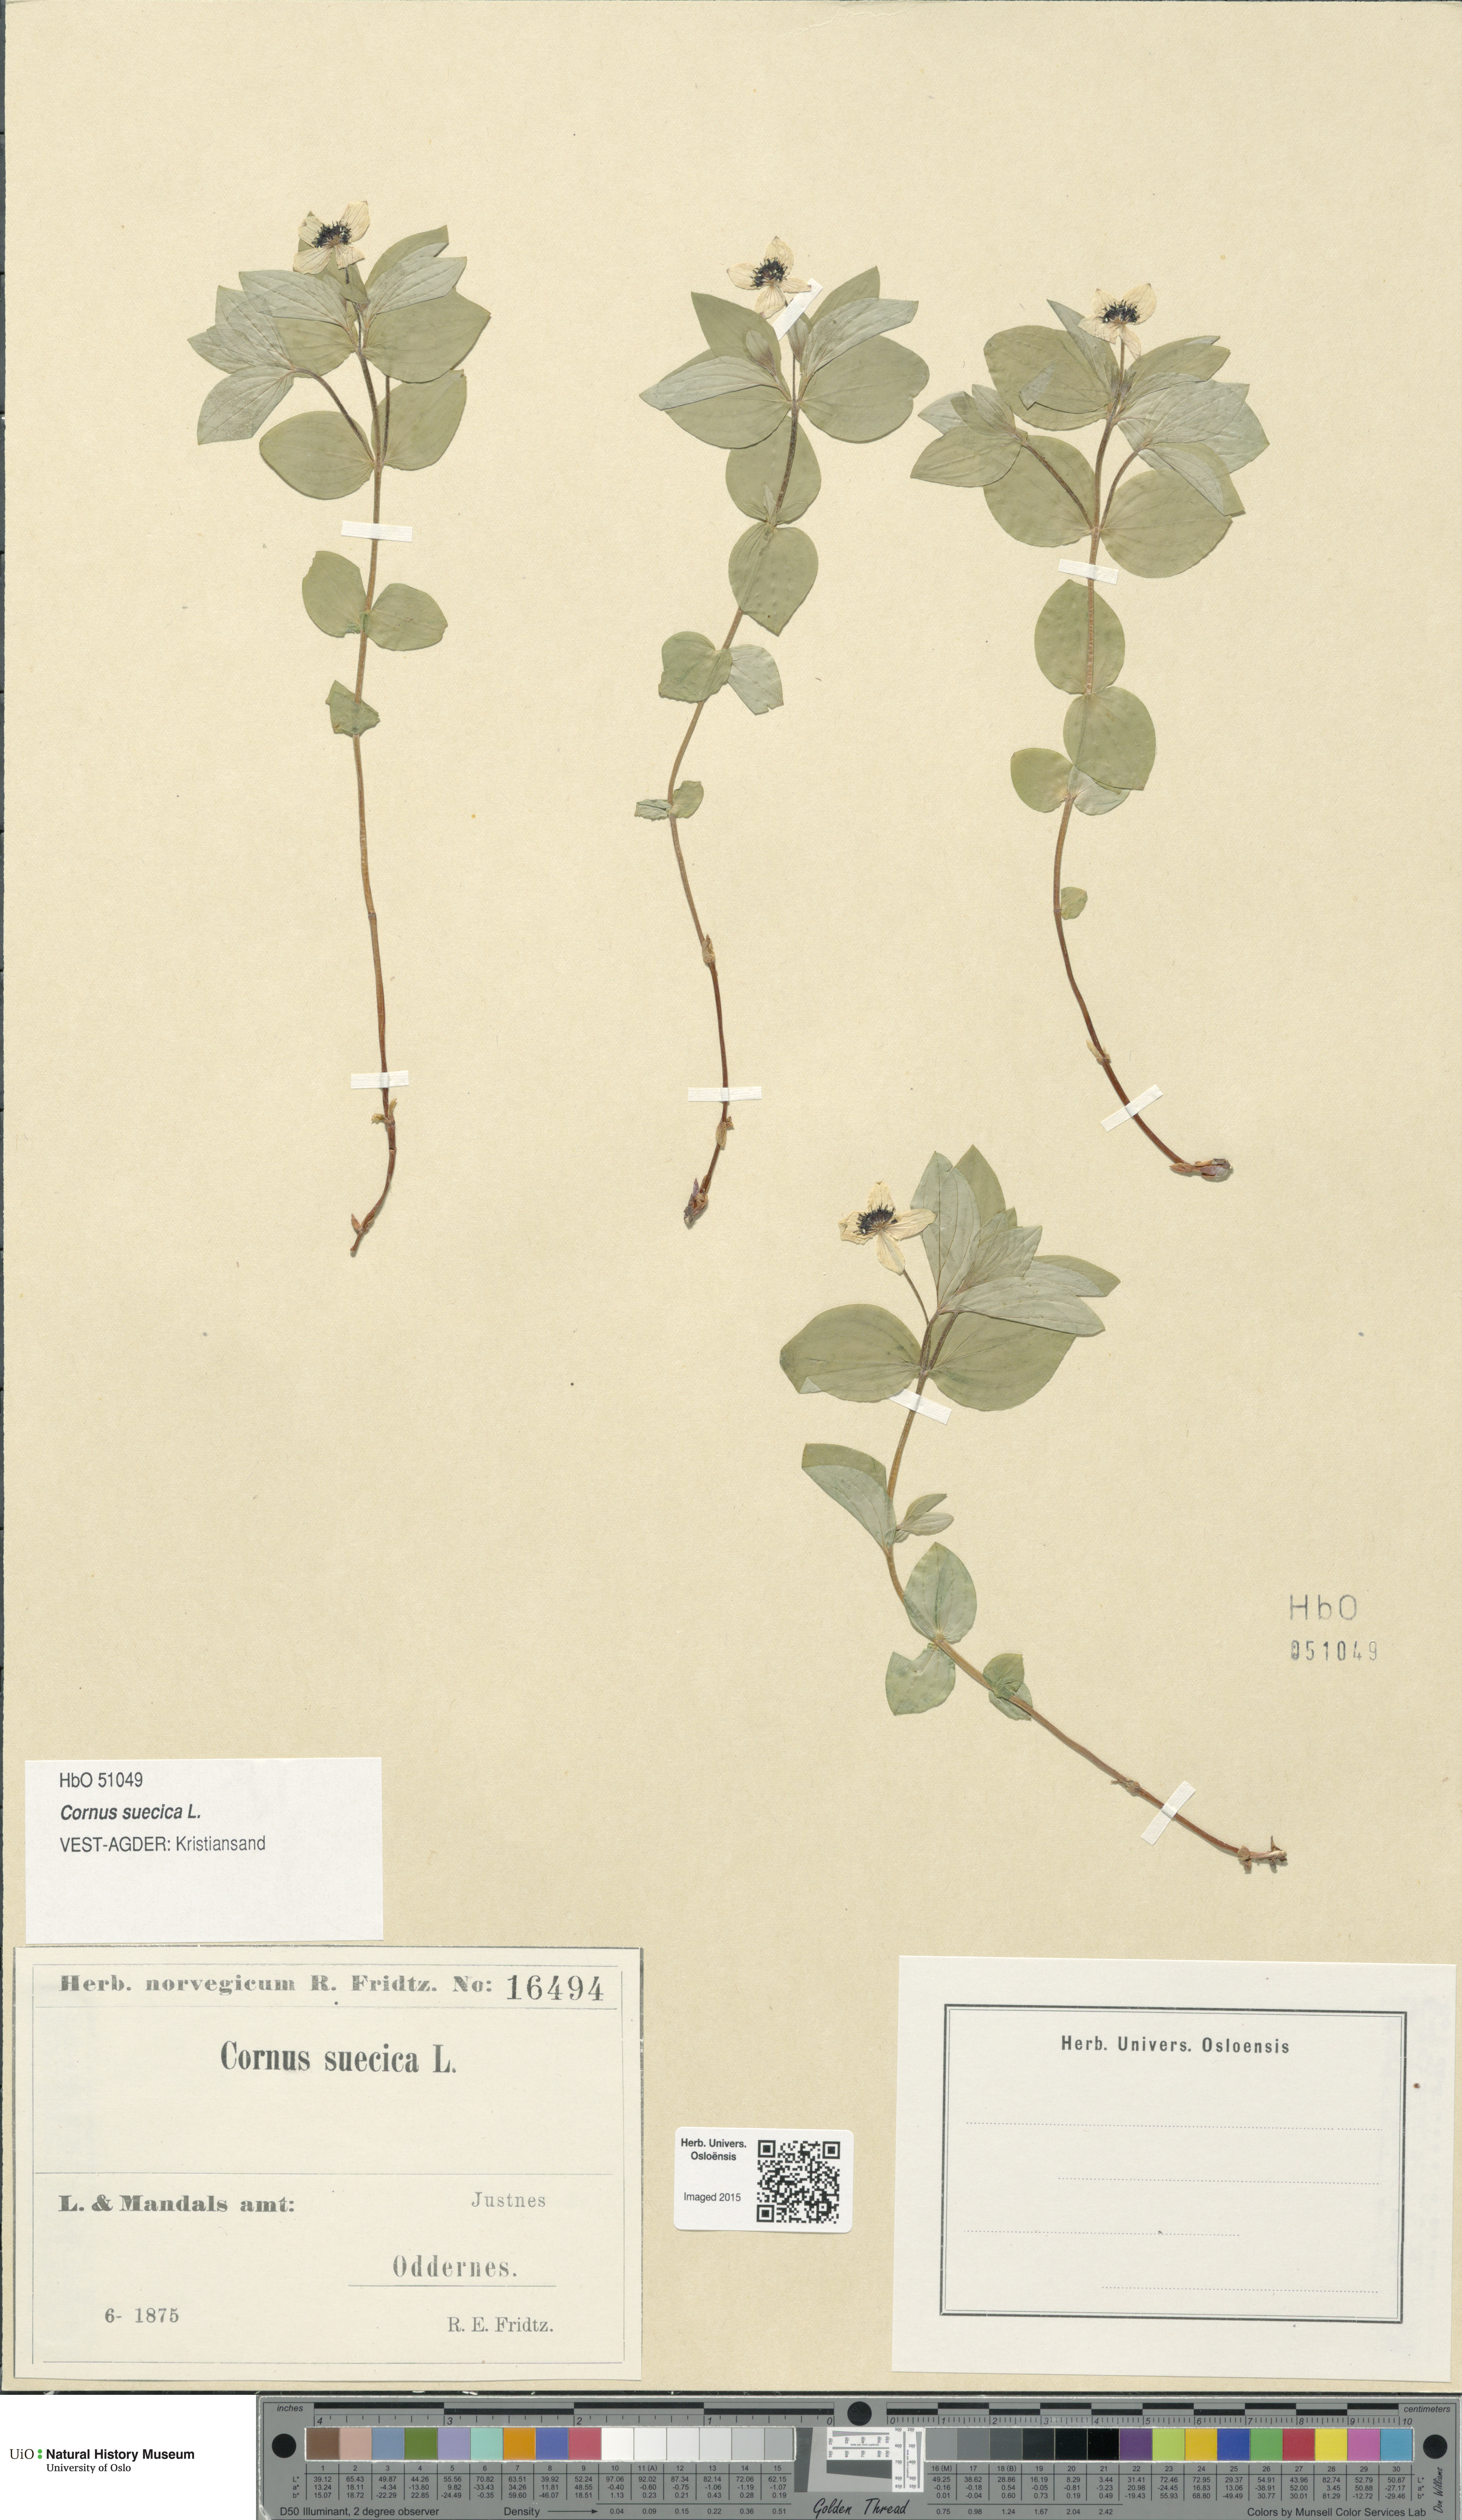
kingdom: Plantae
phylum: Tracheophyta
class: Magnoliopsida
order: Cornales
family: Cornaceae
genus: Cornus
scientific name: Cornus suecica
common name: Dwarf cornel
